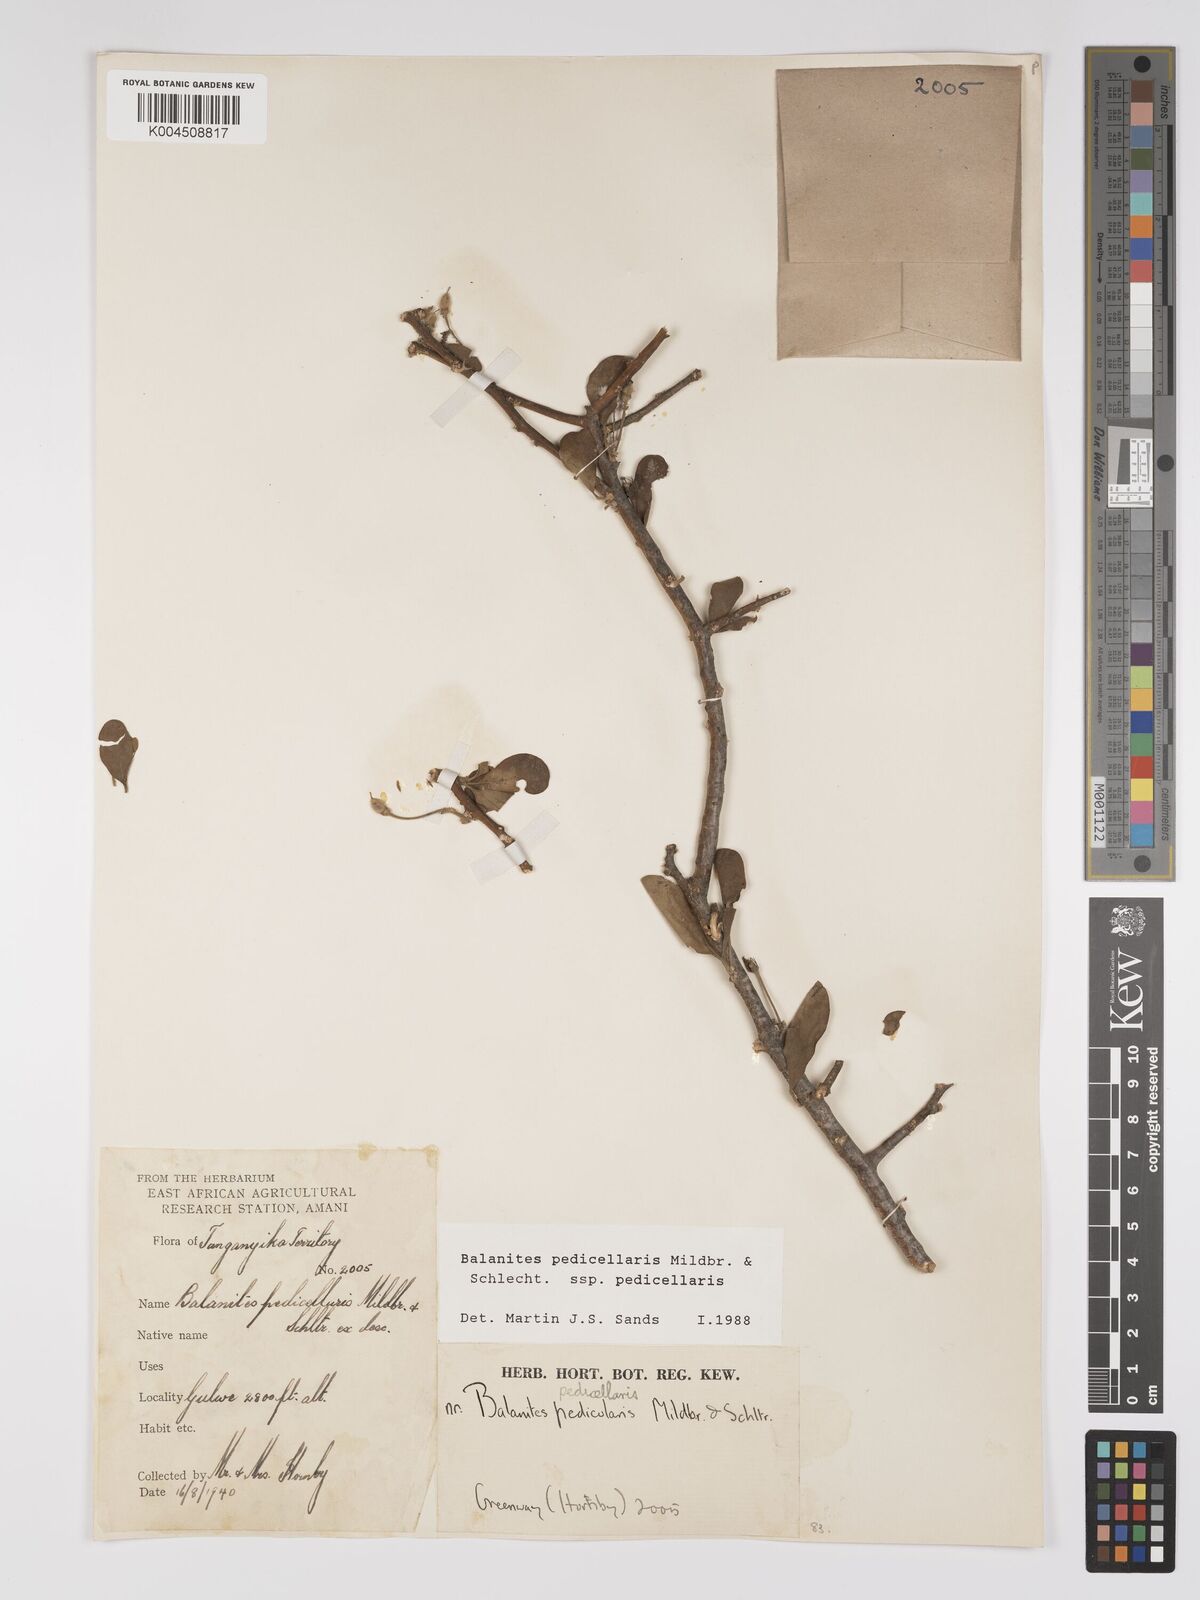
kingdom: Plantae
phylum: Tracheophyta
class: Magnoliopsida
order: Zygophyllales
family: Zygophyllaceae
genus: Balanites
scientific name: Balanites pedicellaris
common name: Small green-thorn
